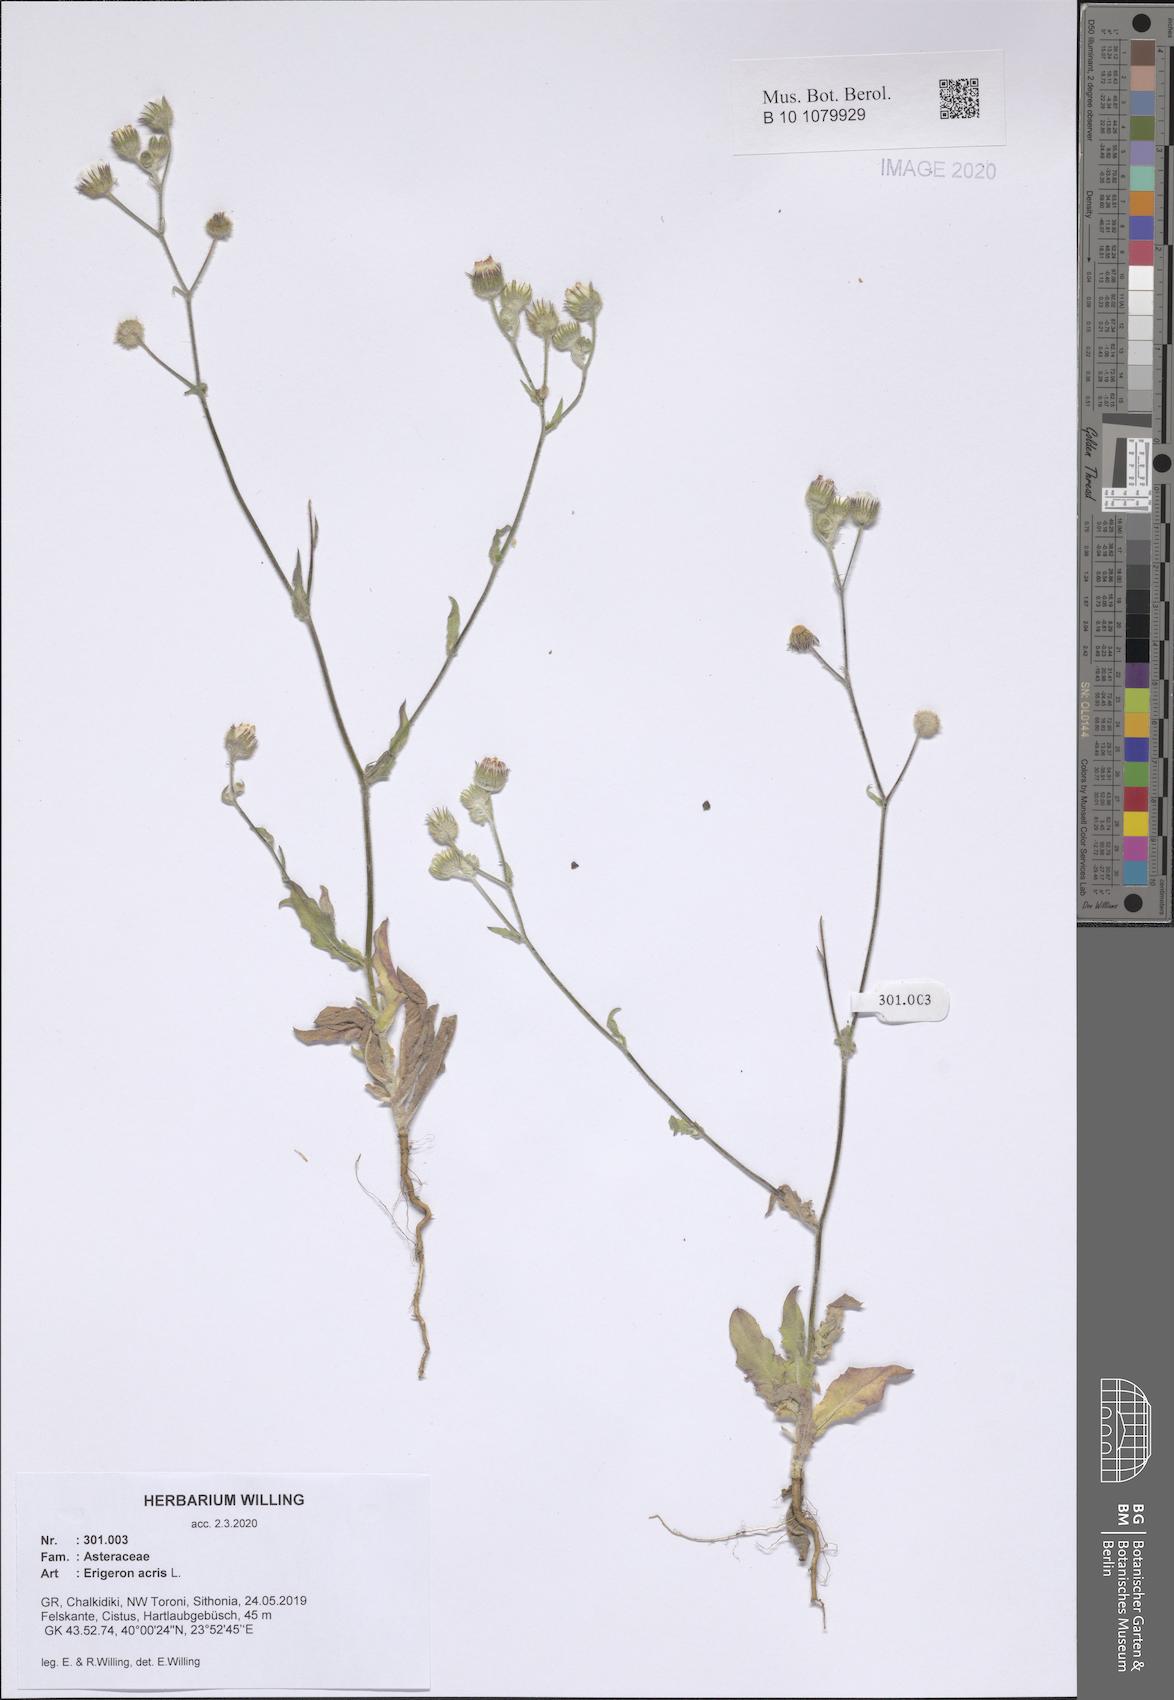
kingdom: Plantae
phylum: Tracheophyta
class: Magnoliopsida
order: Asterales
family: Asteraceae
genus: Erigeron
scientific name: Erigeron acris
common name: Blue fleabane
